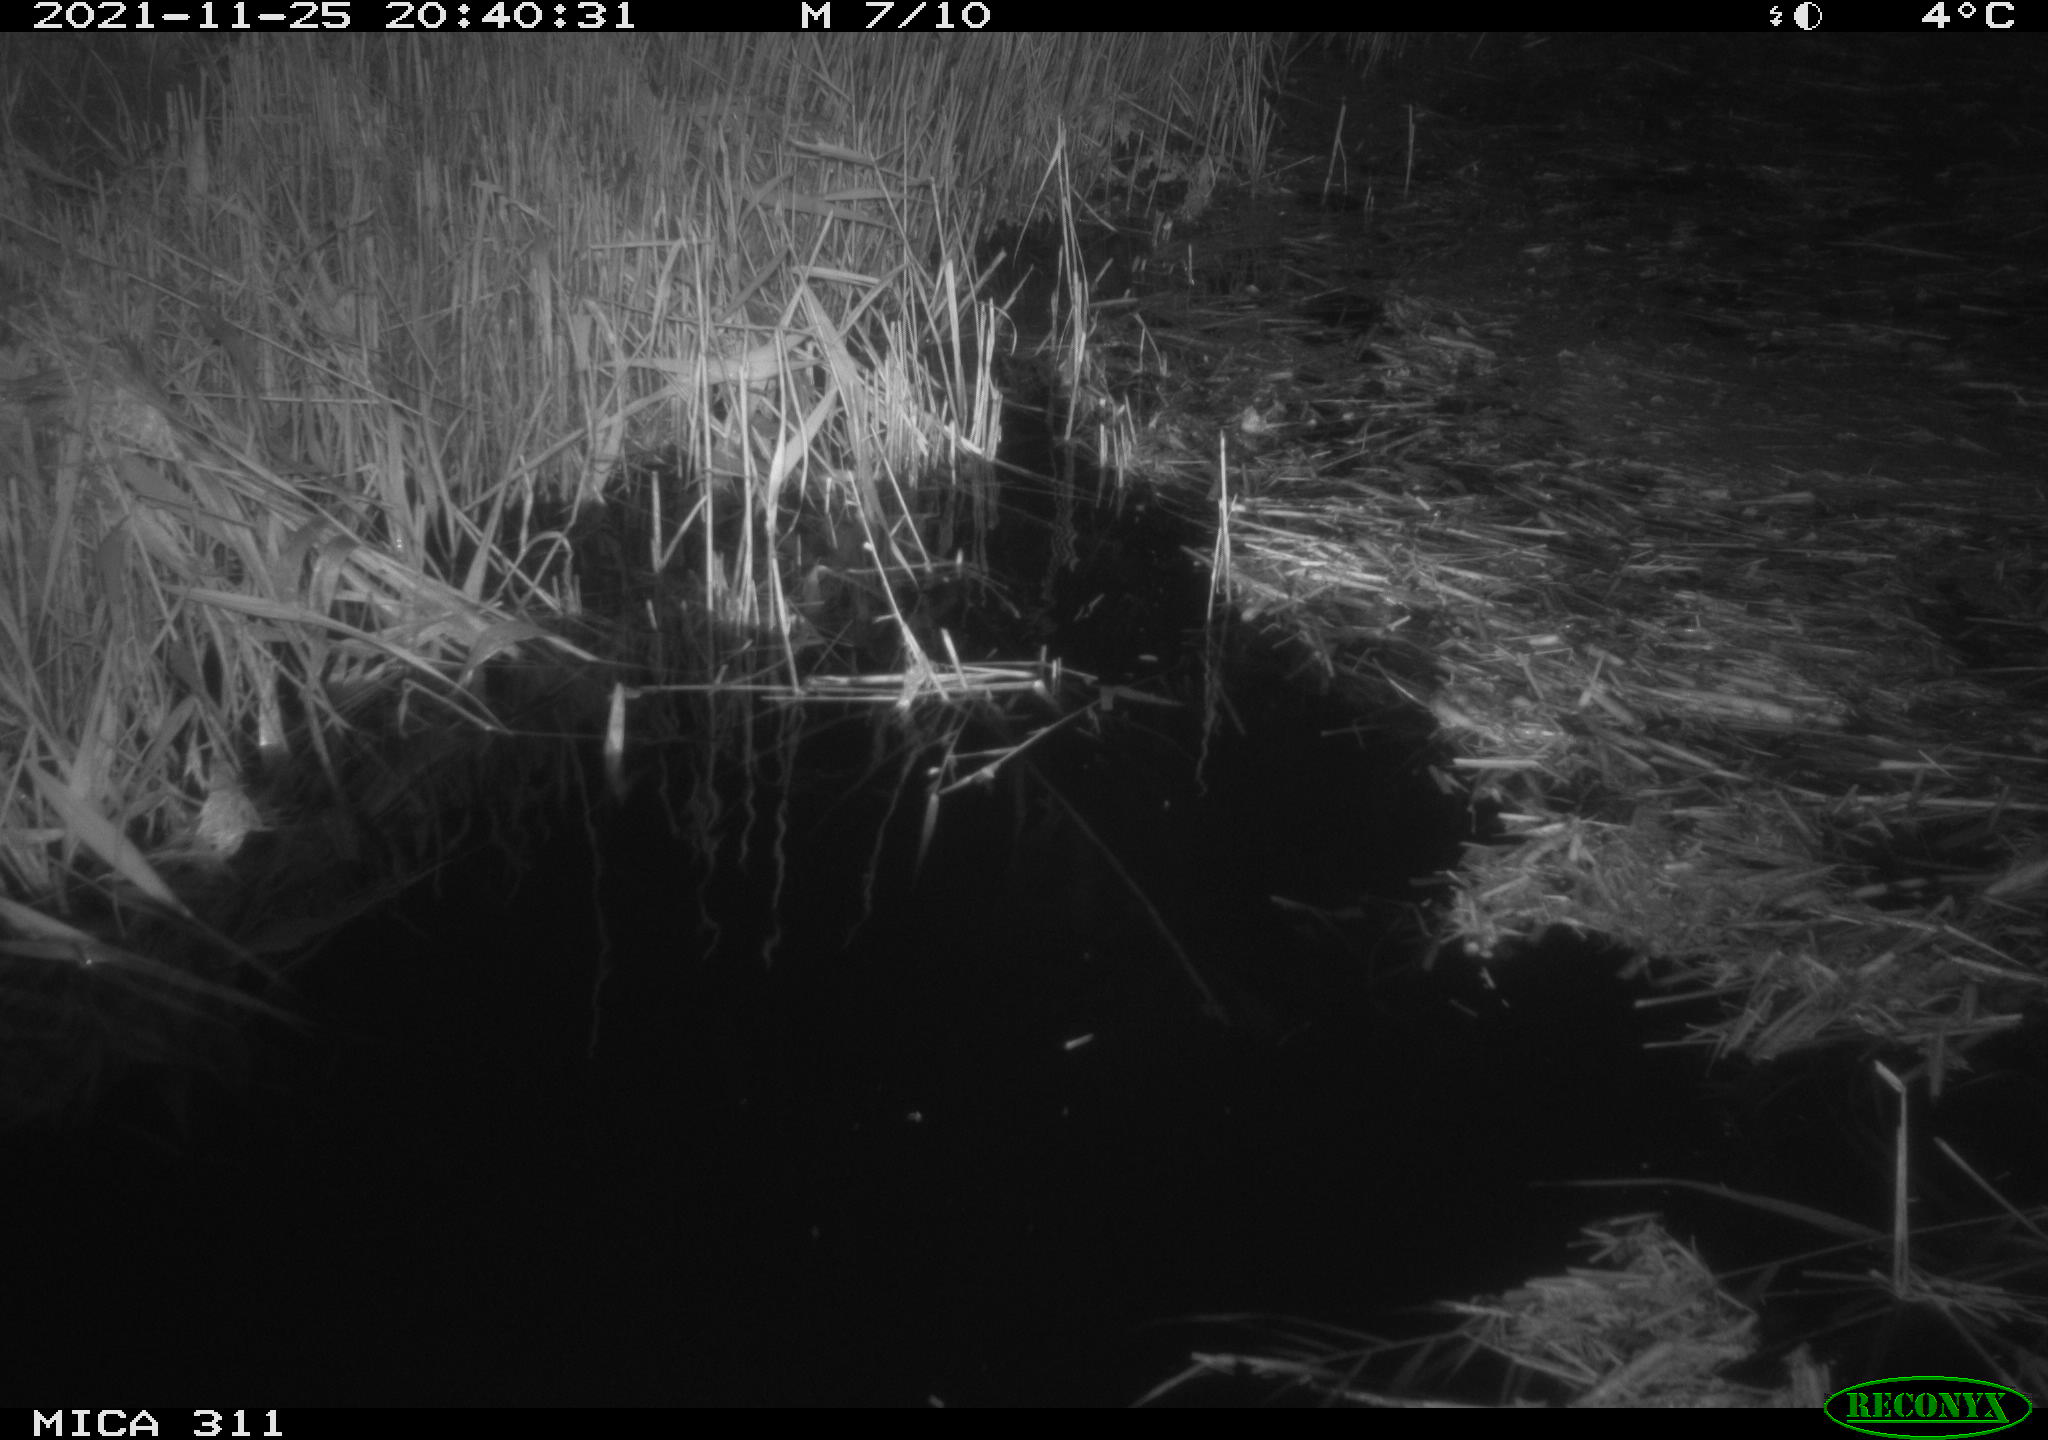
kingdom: Animalia
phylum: Chordata
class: Mammalia
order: Rodentia
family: Muridae
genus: Rattus
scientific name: Rattus norvegicus
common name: Brown rat
